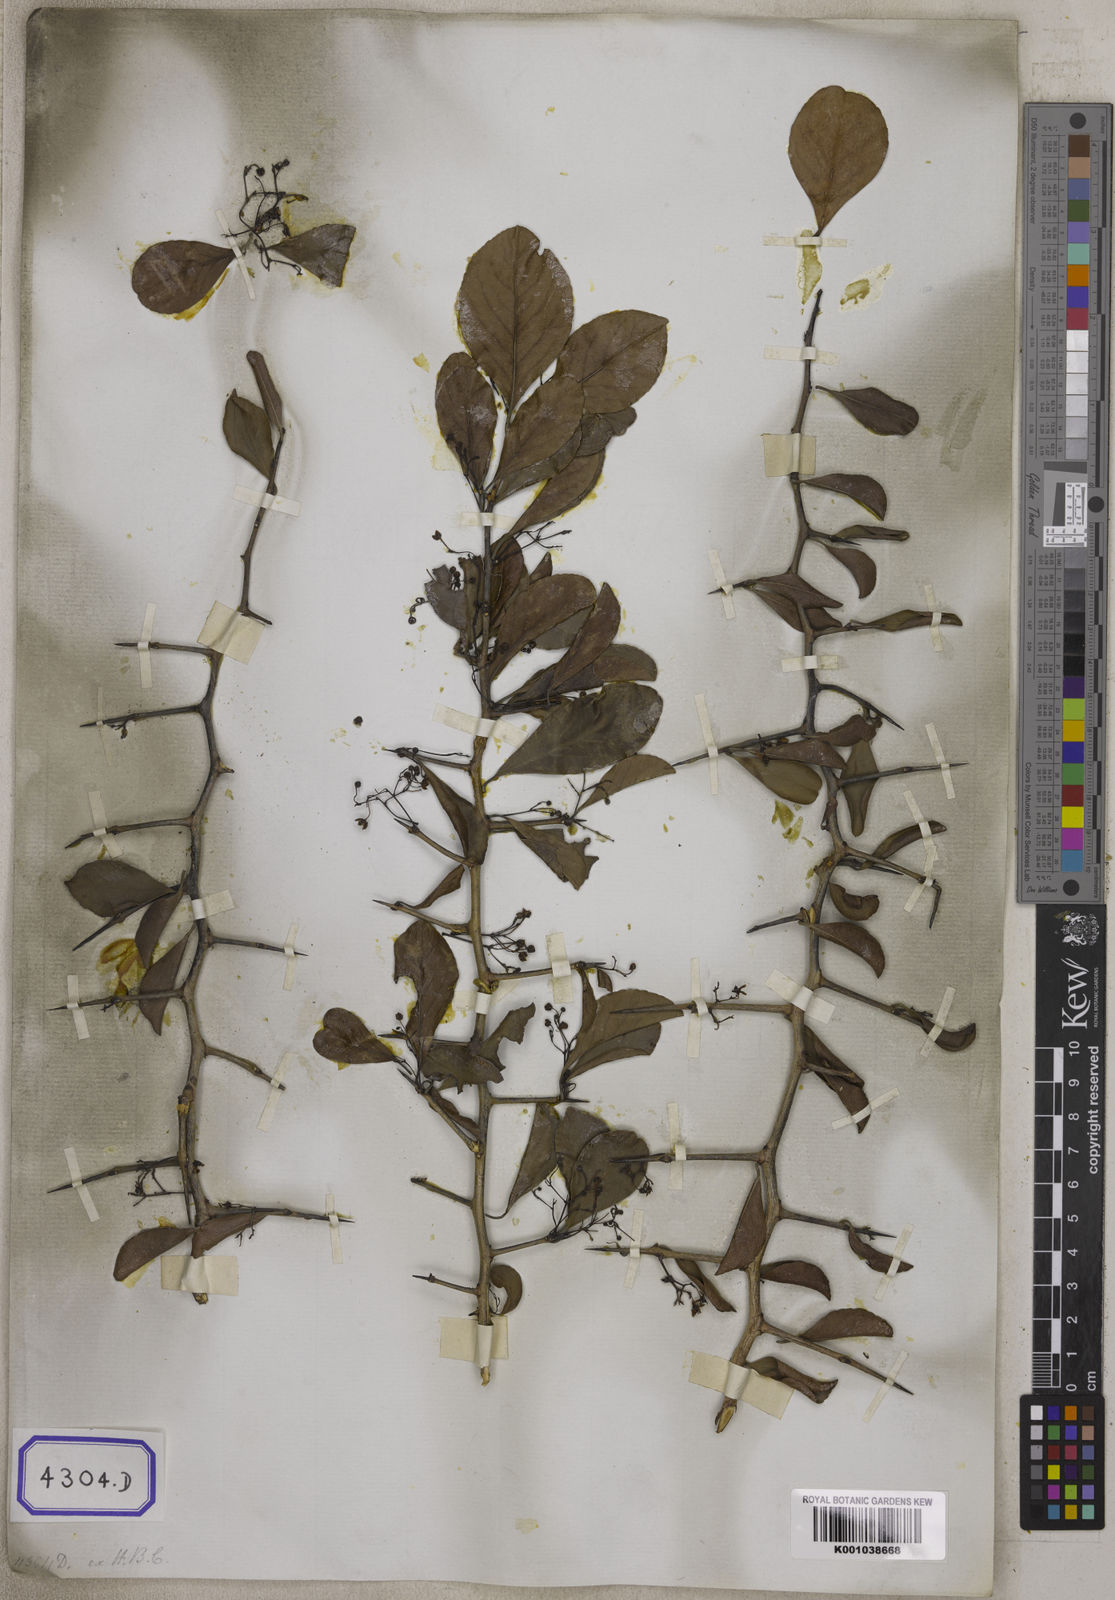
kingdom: Plantae
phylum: Tracheophyta
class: Magnoliopsida
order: Celastrales
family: Celastraceae
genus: Gymnosporia
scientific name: Gymnosporia wallichiana
